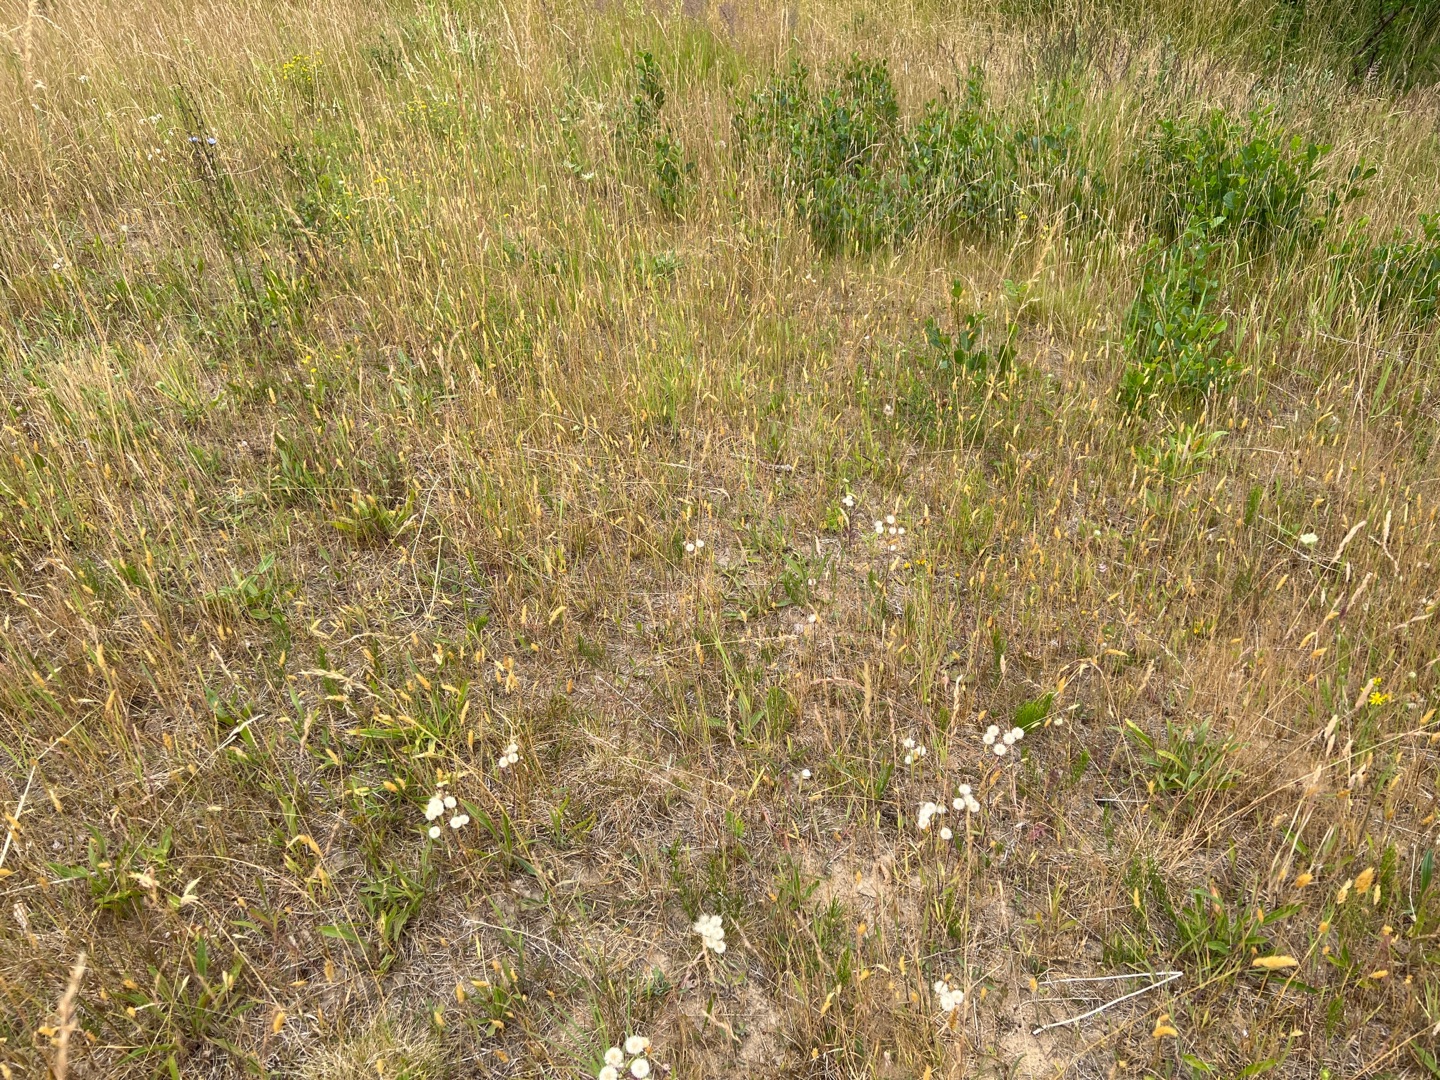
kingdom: Plantae
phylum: Tracheophyta
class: Liliopsida
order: Poales
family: Poaceae
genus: Anthoxanthum
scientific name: Anthoxanthum odoratum
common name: Vellugtende gulaks
